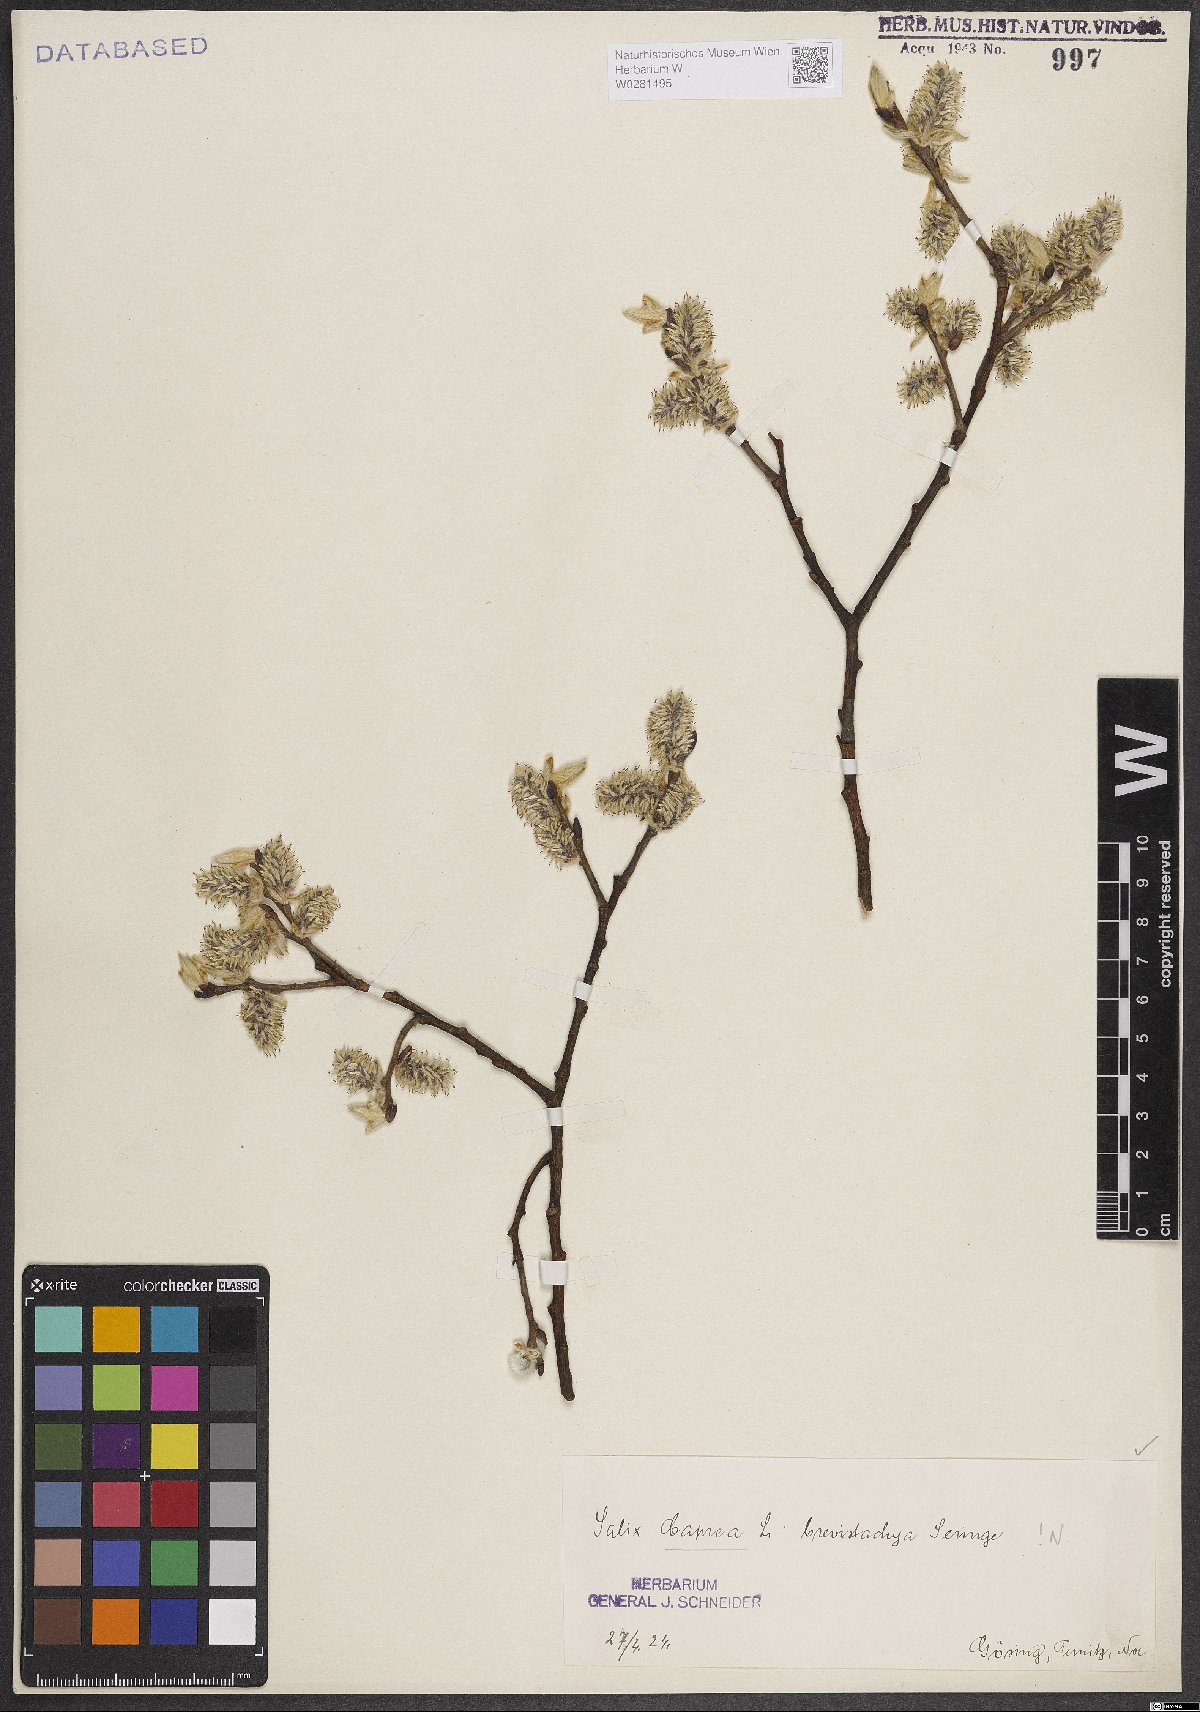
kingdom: Plantae
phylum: Tracheophyta
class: Magnoliopsida
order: Malpighiales
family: Salicaceae
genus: Salix
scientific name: Salix caprea
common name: Goat willow
